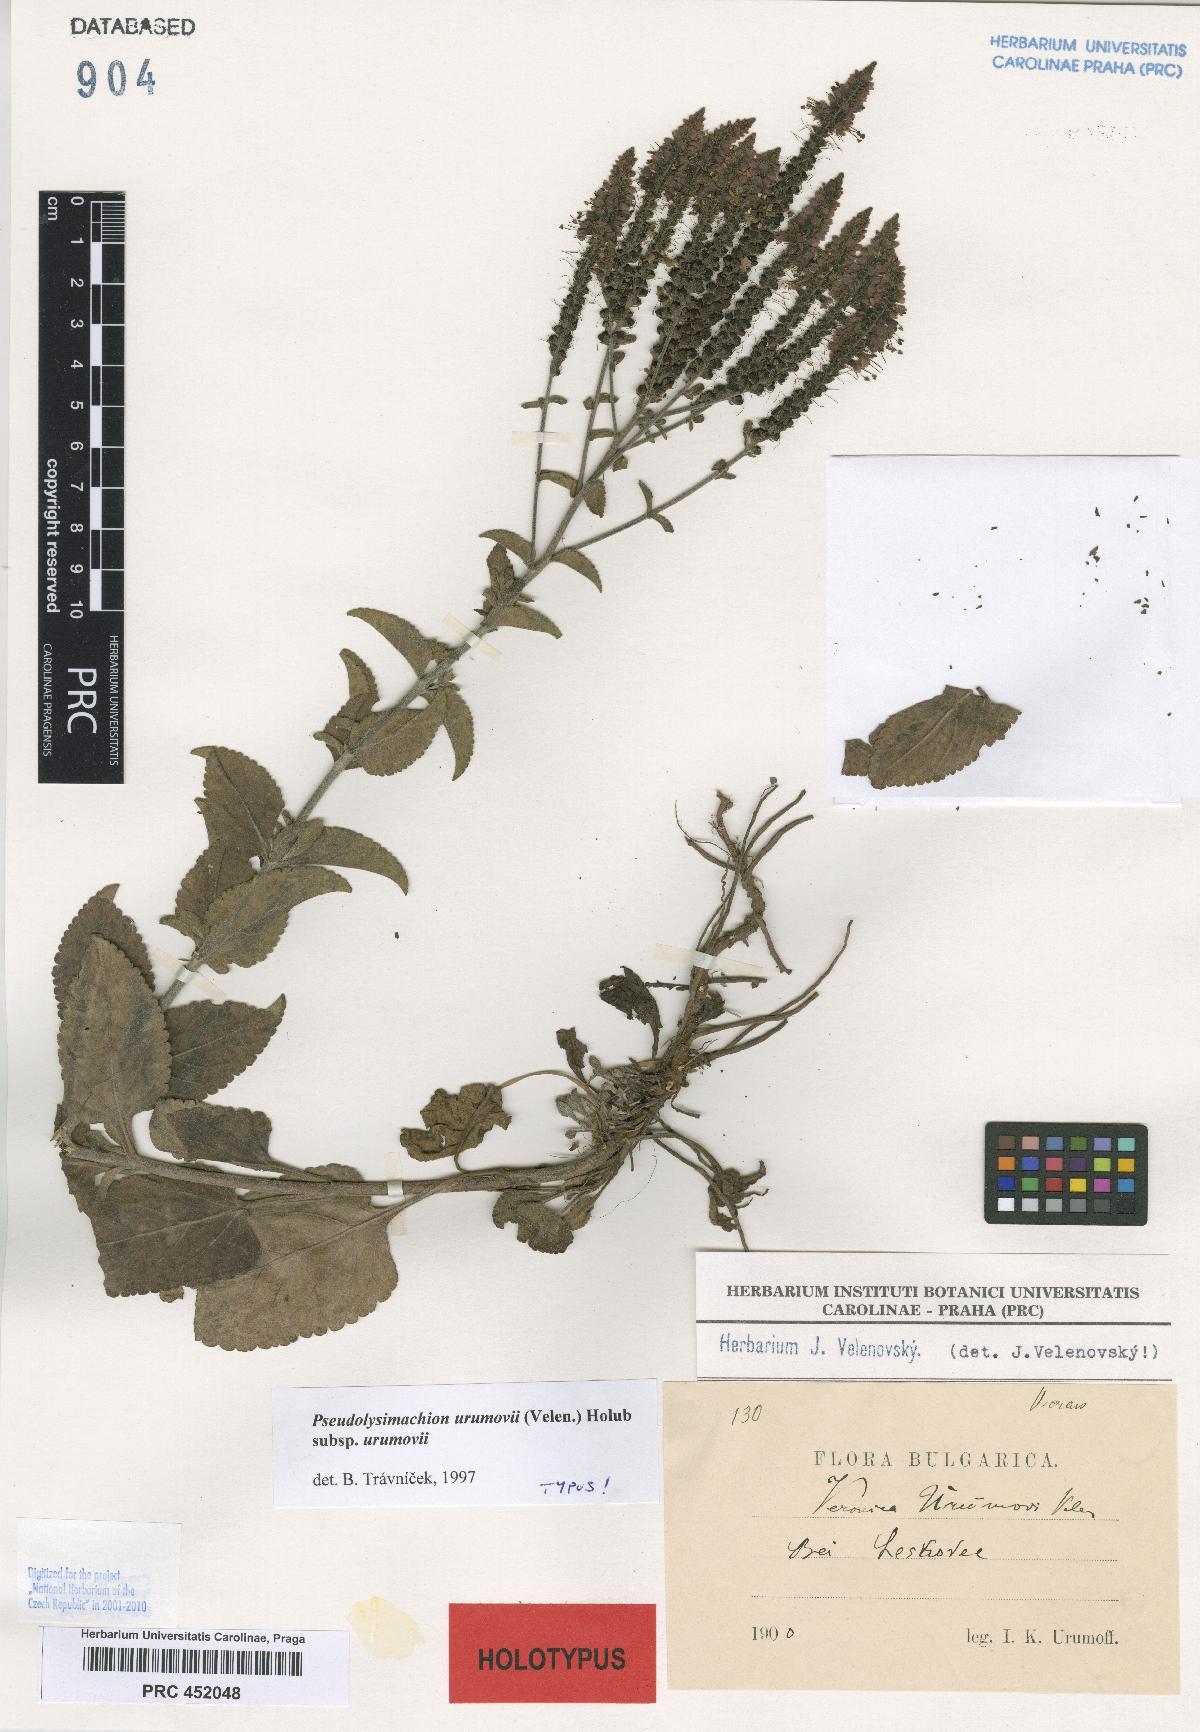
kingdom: Plantae
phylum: Tracheophyta
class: Magnoliopsida
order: Lamiales
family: Plantaginaceae
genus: Veronica
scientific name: Veronica orchidea
